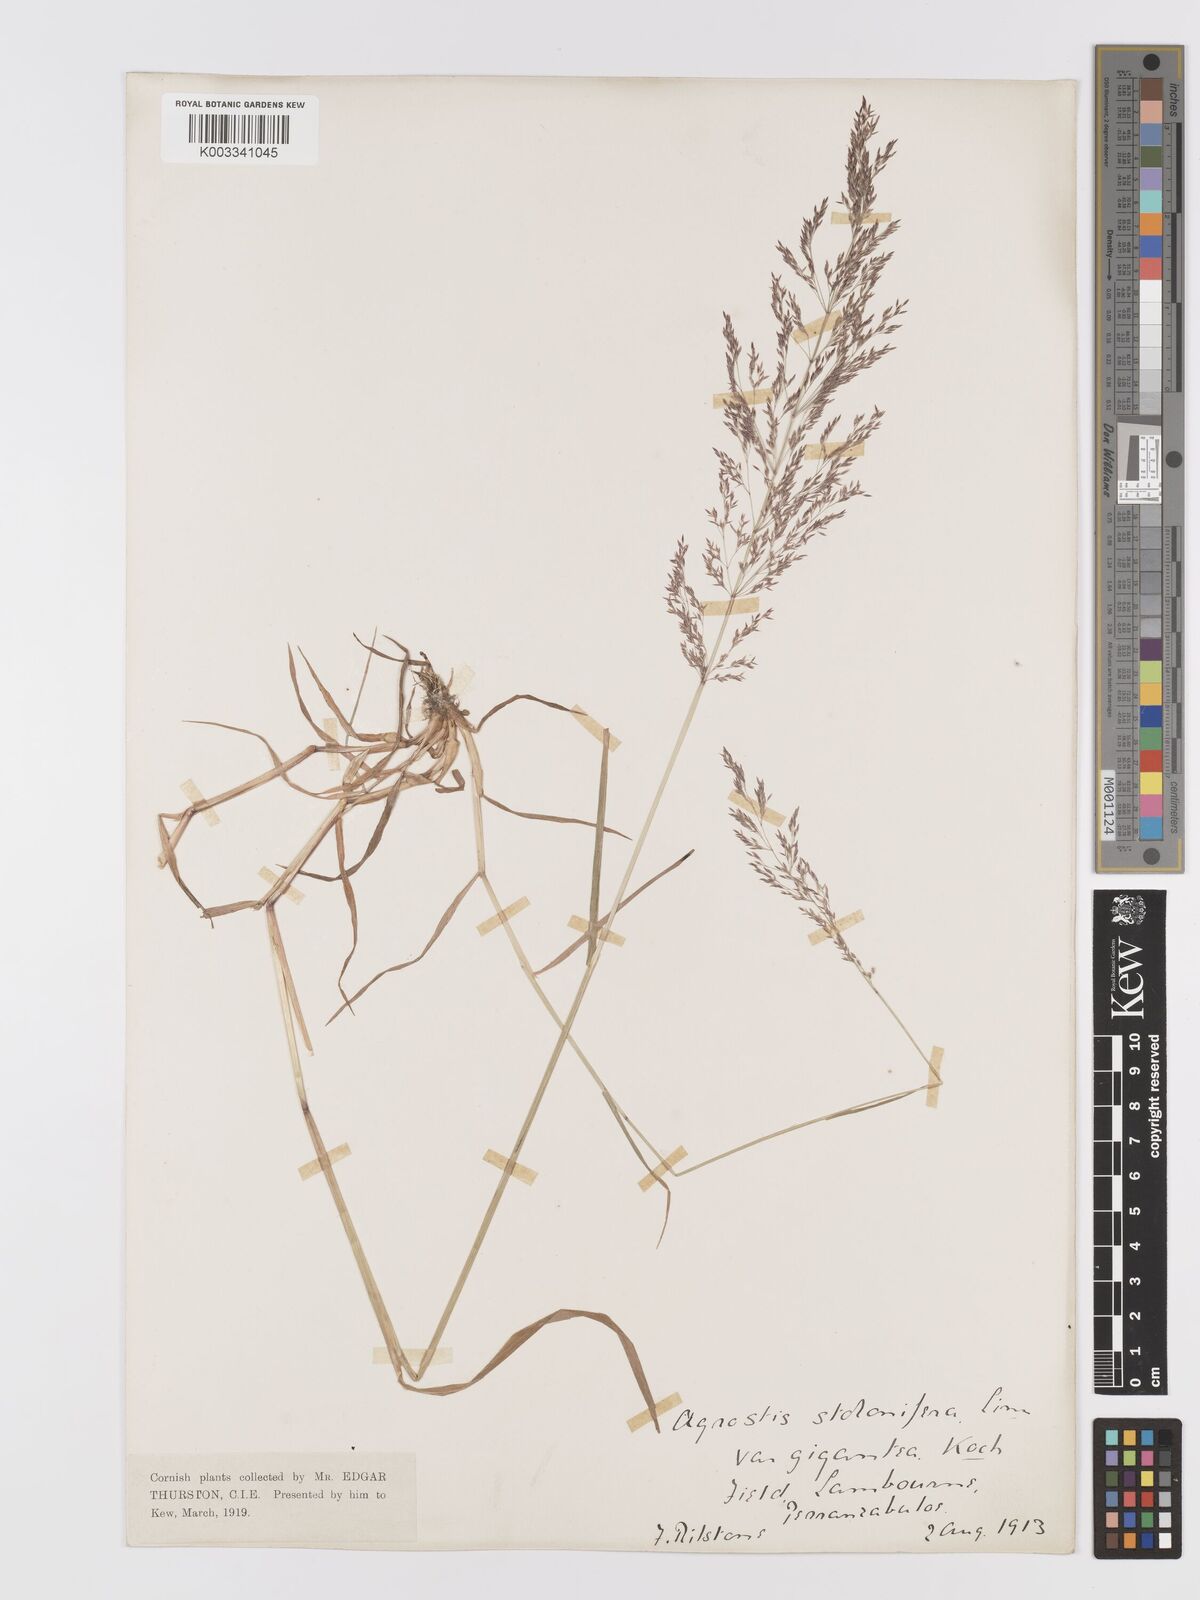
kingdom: Plantae
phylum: Tracheophyta
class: Liliopsida
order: Poales
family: Poaceae
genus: Agrostis
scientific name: Agrostis gigantea
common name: Black bent
